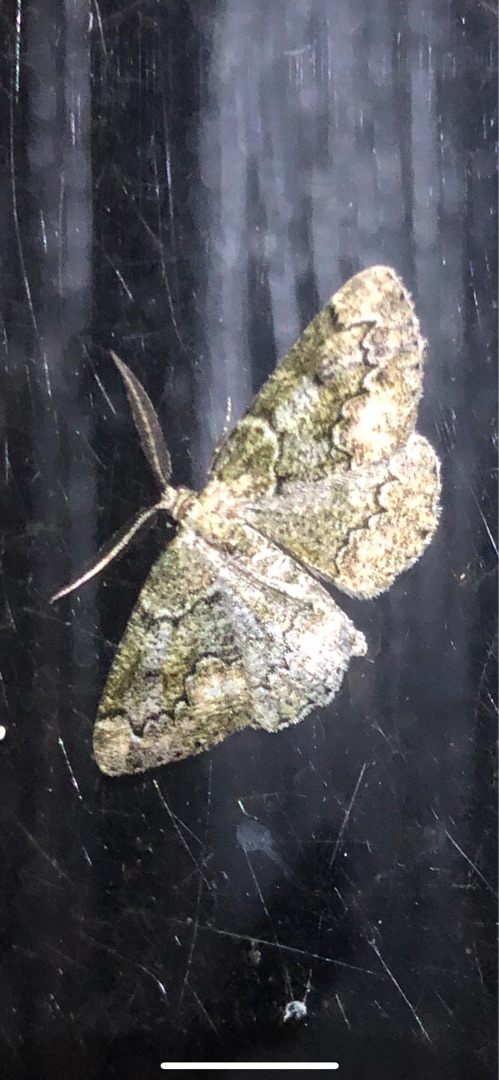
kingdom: Animalia
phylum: Arthropoda
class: Insecta
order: Lepidoptera
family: Geometridae
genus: Cleorodes
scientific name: Cleorodes lichenaria
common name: Lille lavmåler
